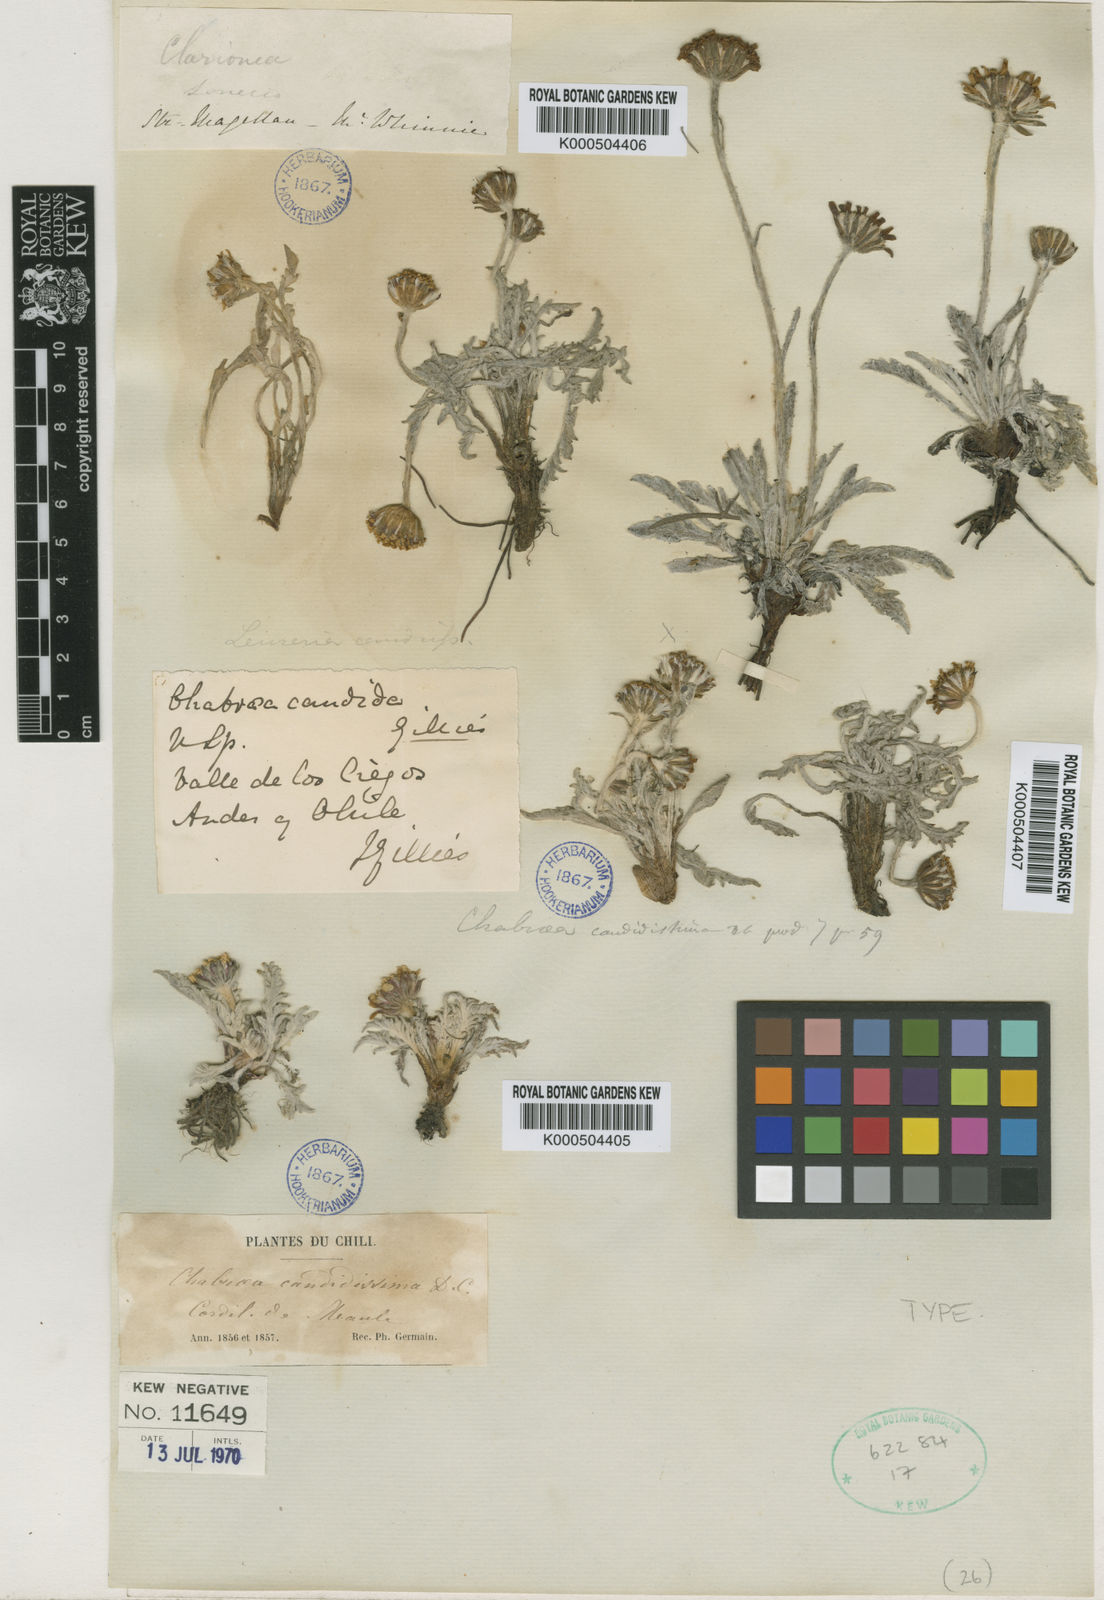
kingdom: Plantae
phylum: Tracheophyta
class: Magnoliopsida
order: Asterales
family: Asteraceae
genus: Leucheria
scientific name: Leucheria candidissima
